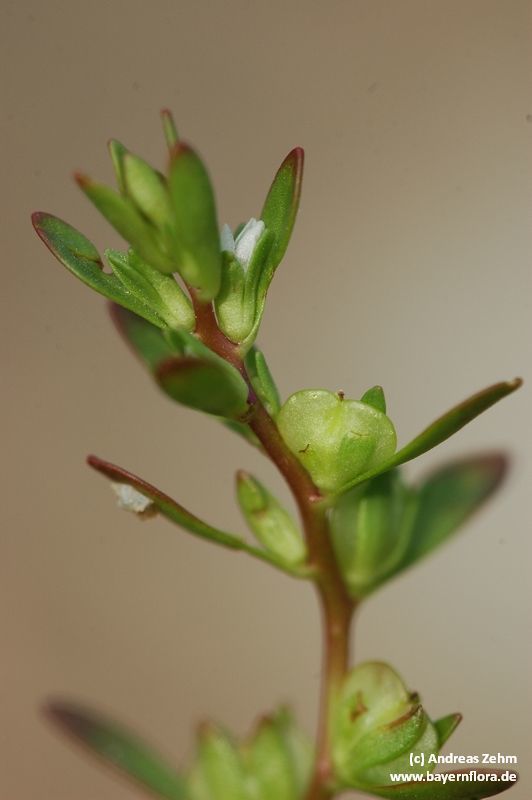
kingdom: Plantae
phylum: Tracheophyta
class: Magnoliopsida
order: Lamiales
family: Plantaginaceae
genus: Veronica
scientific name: Veronica peregrina
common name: Neckweed
